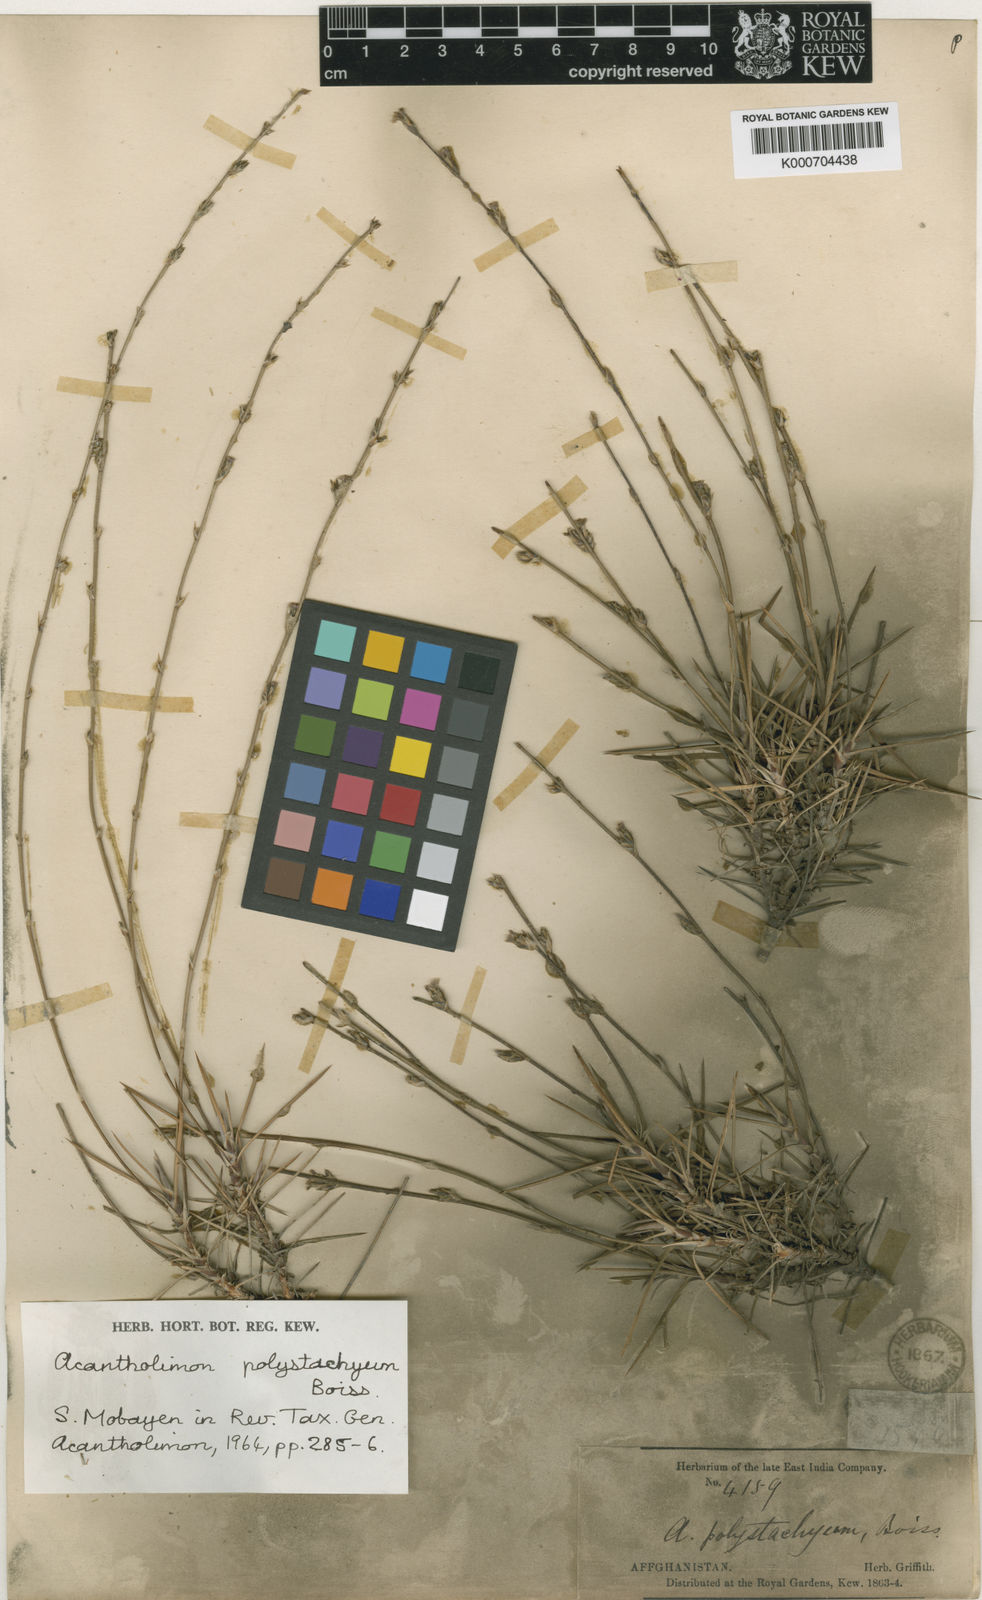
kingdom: Plantae
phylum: Tracheophyta
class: Magnoliopsida
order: Caryophyllales
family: Plumbaginaceae
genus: Acantholimon
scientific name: Acantholimon polystachyum
